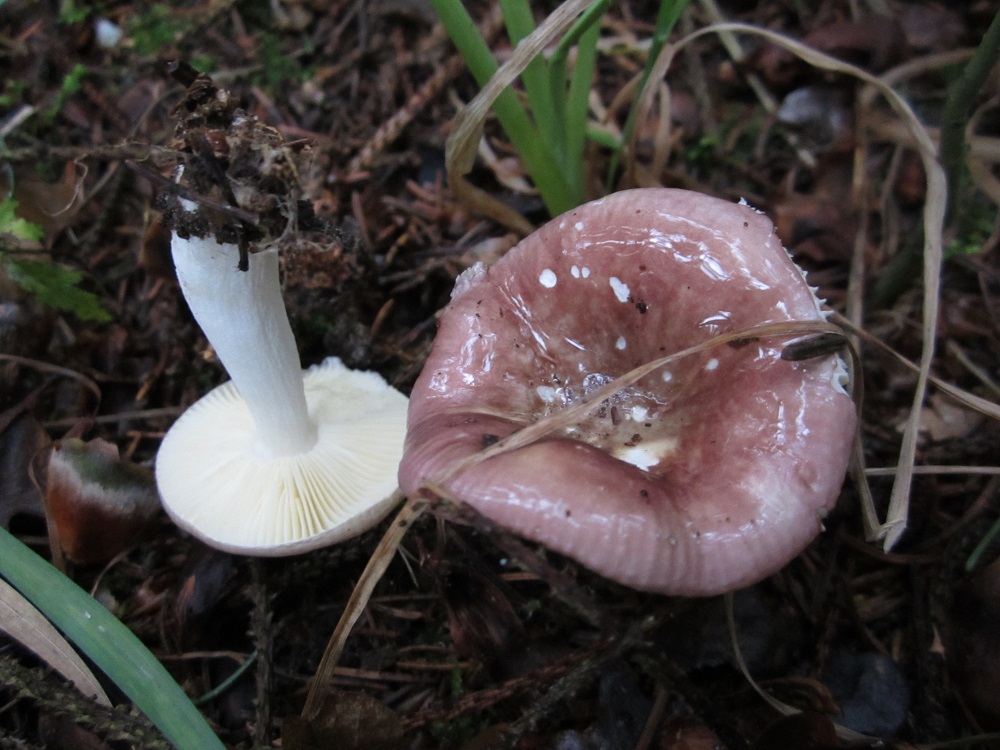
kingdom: Fungi
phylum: Basidiomycota
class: Agaricomycetes
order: Russulales
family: Russulaceae
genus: Russula
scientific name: Russula nauseosa
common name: spinkel skørhat
